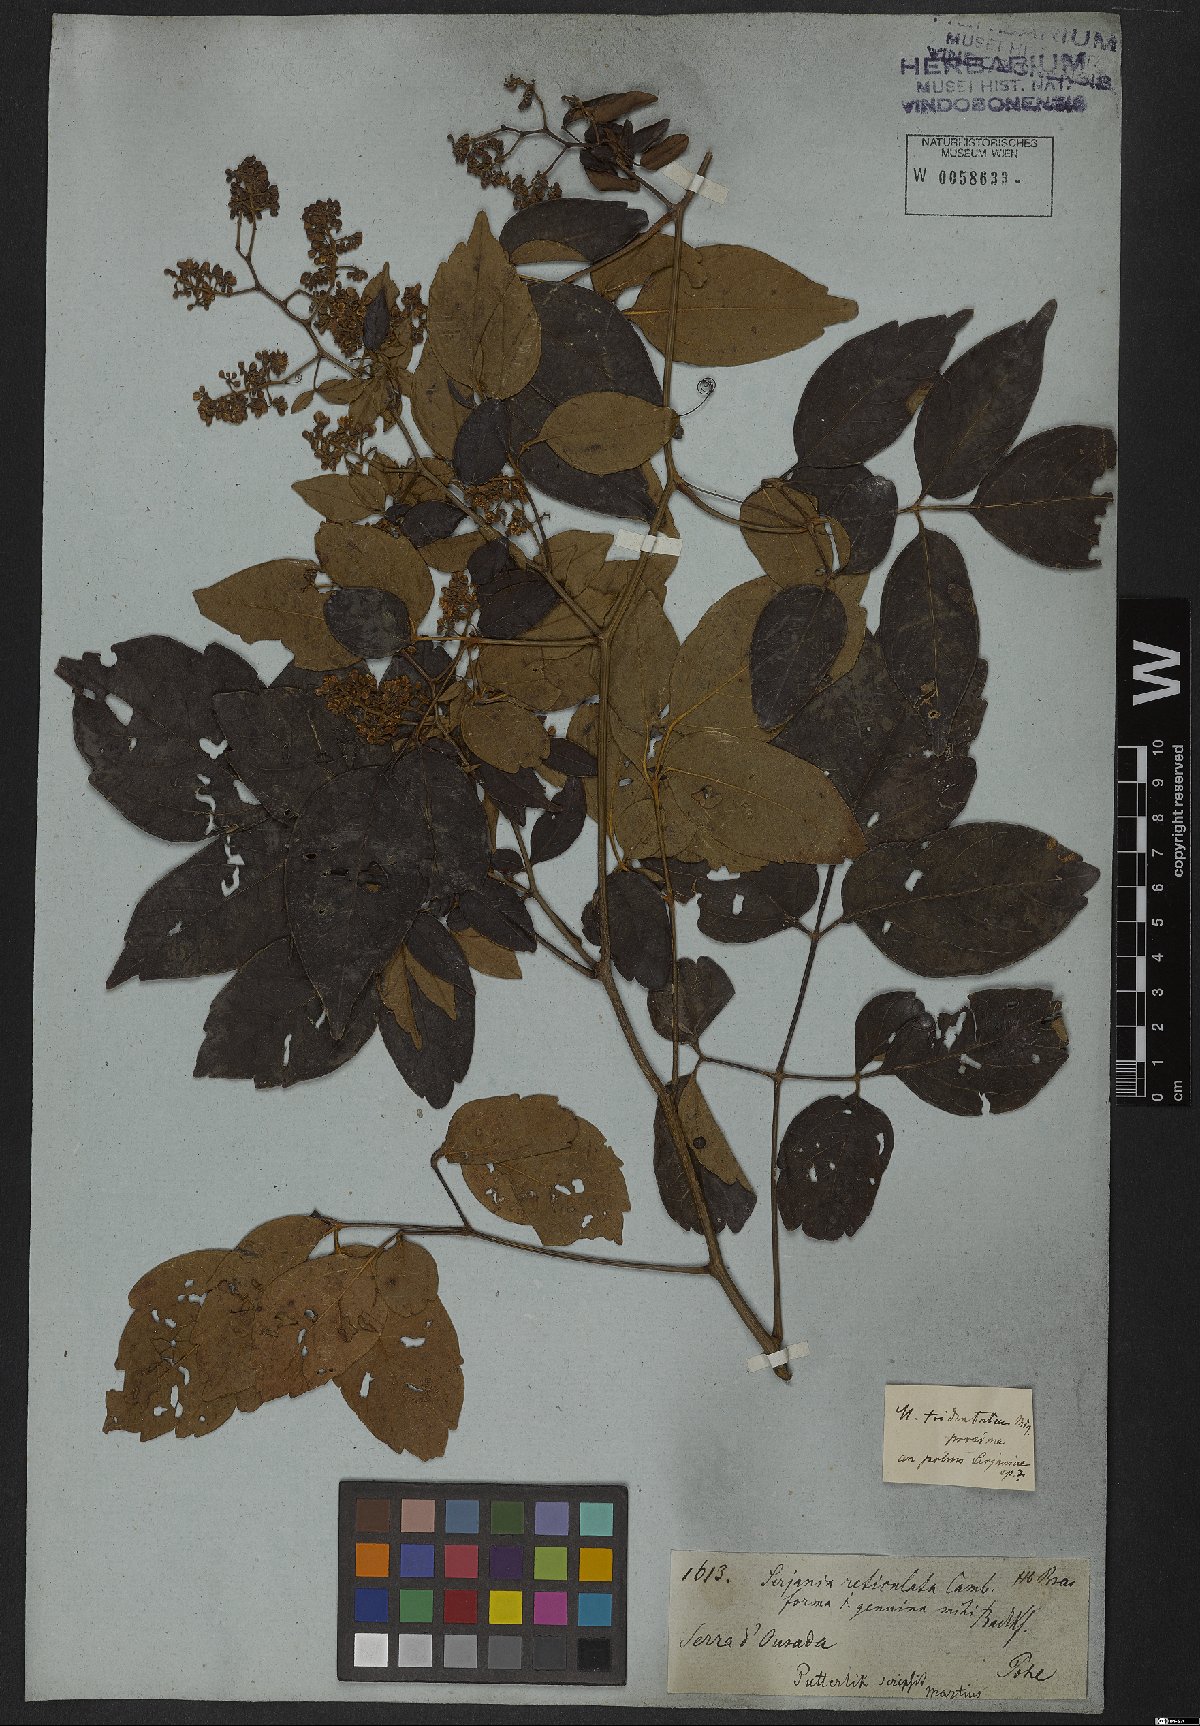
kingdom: Plantae
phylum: Tracheophyta
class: Magnoliopsida
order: Sapindales
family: Sapindaceae
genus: Serjania
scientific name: Serjania reticulata
